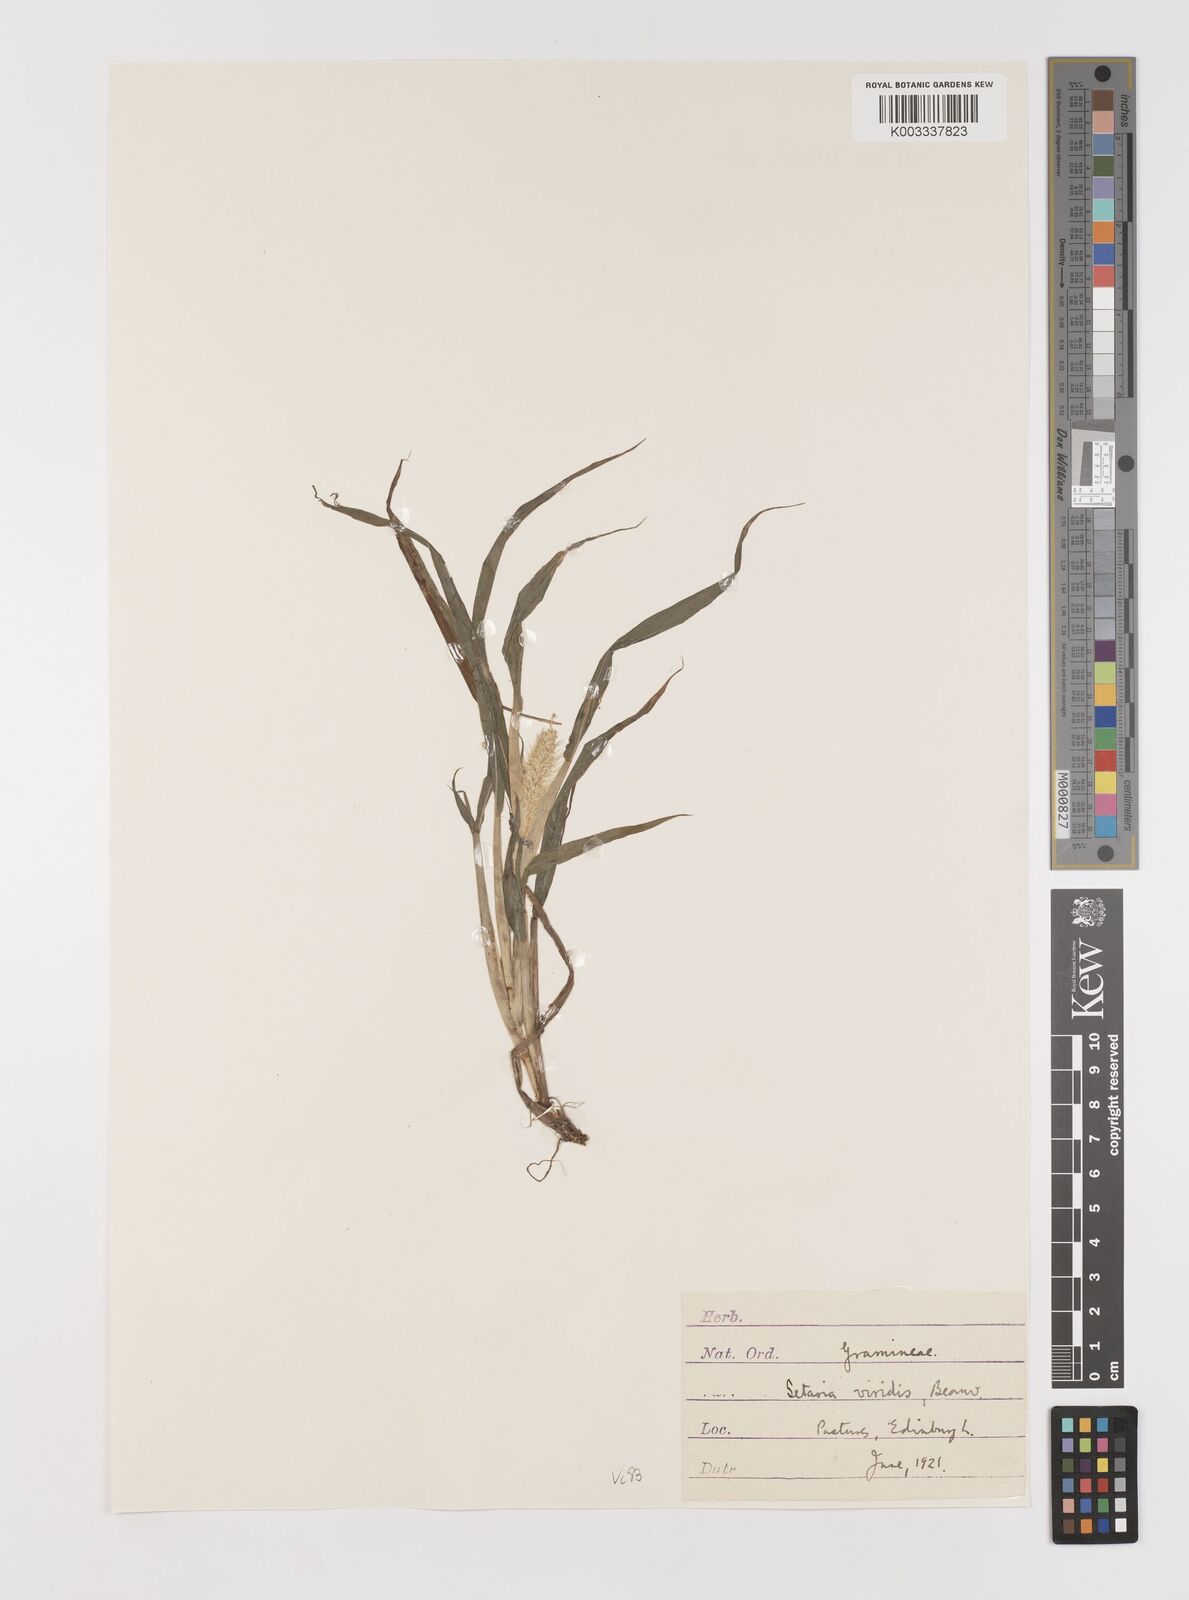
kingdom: Plantae
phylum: Tracheophyta
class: Liliopsida
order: Poales
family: Poaceae
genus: Setaria
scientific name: Setaria viridis
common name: Green bristlegrass
